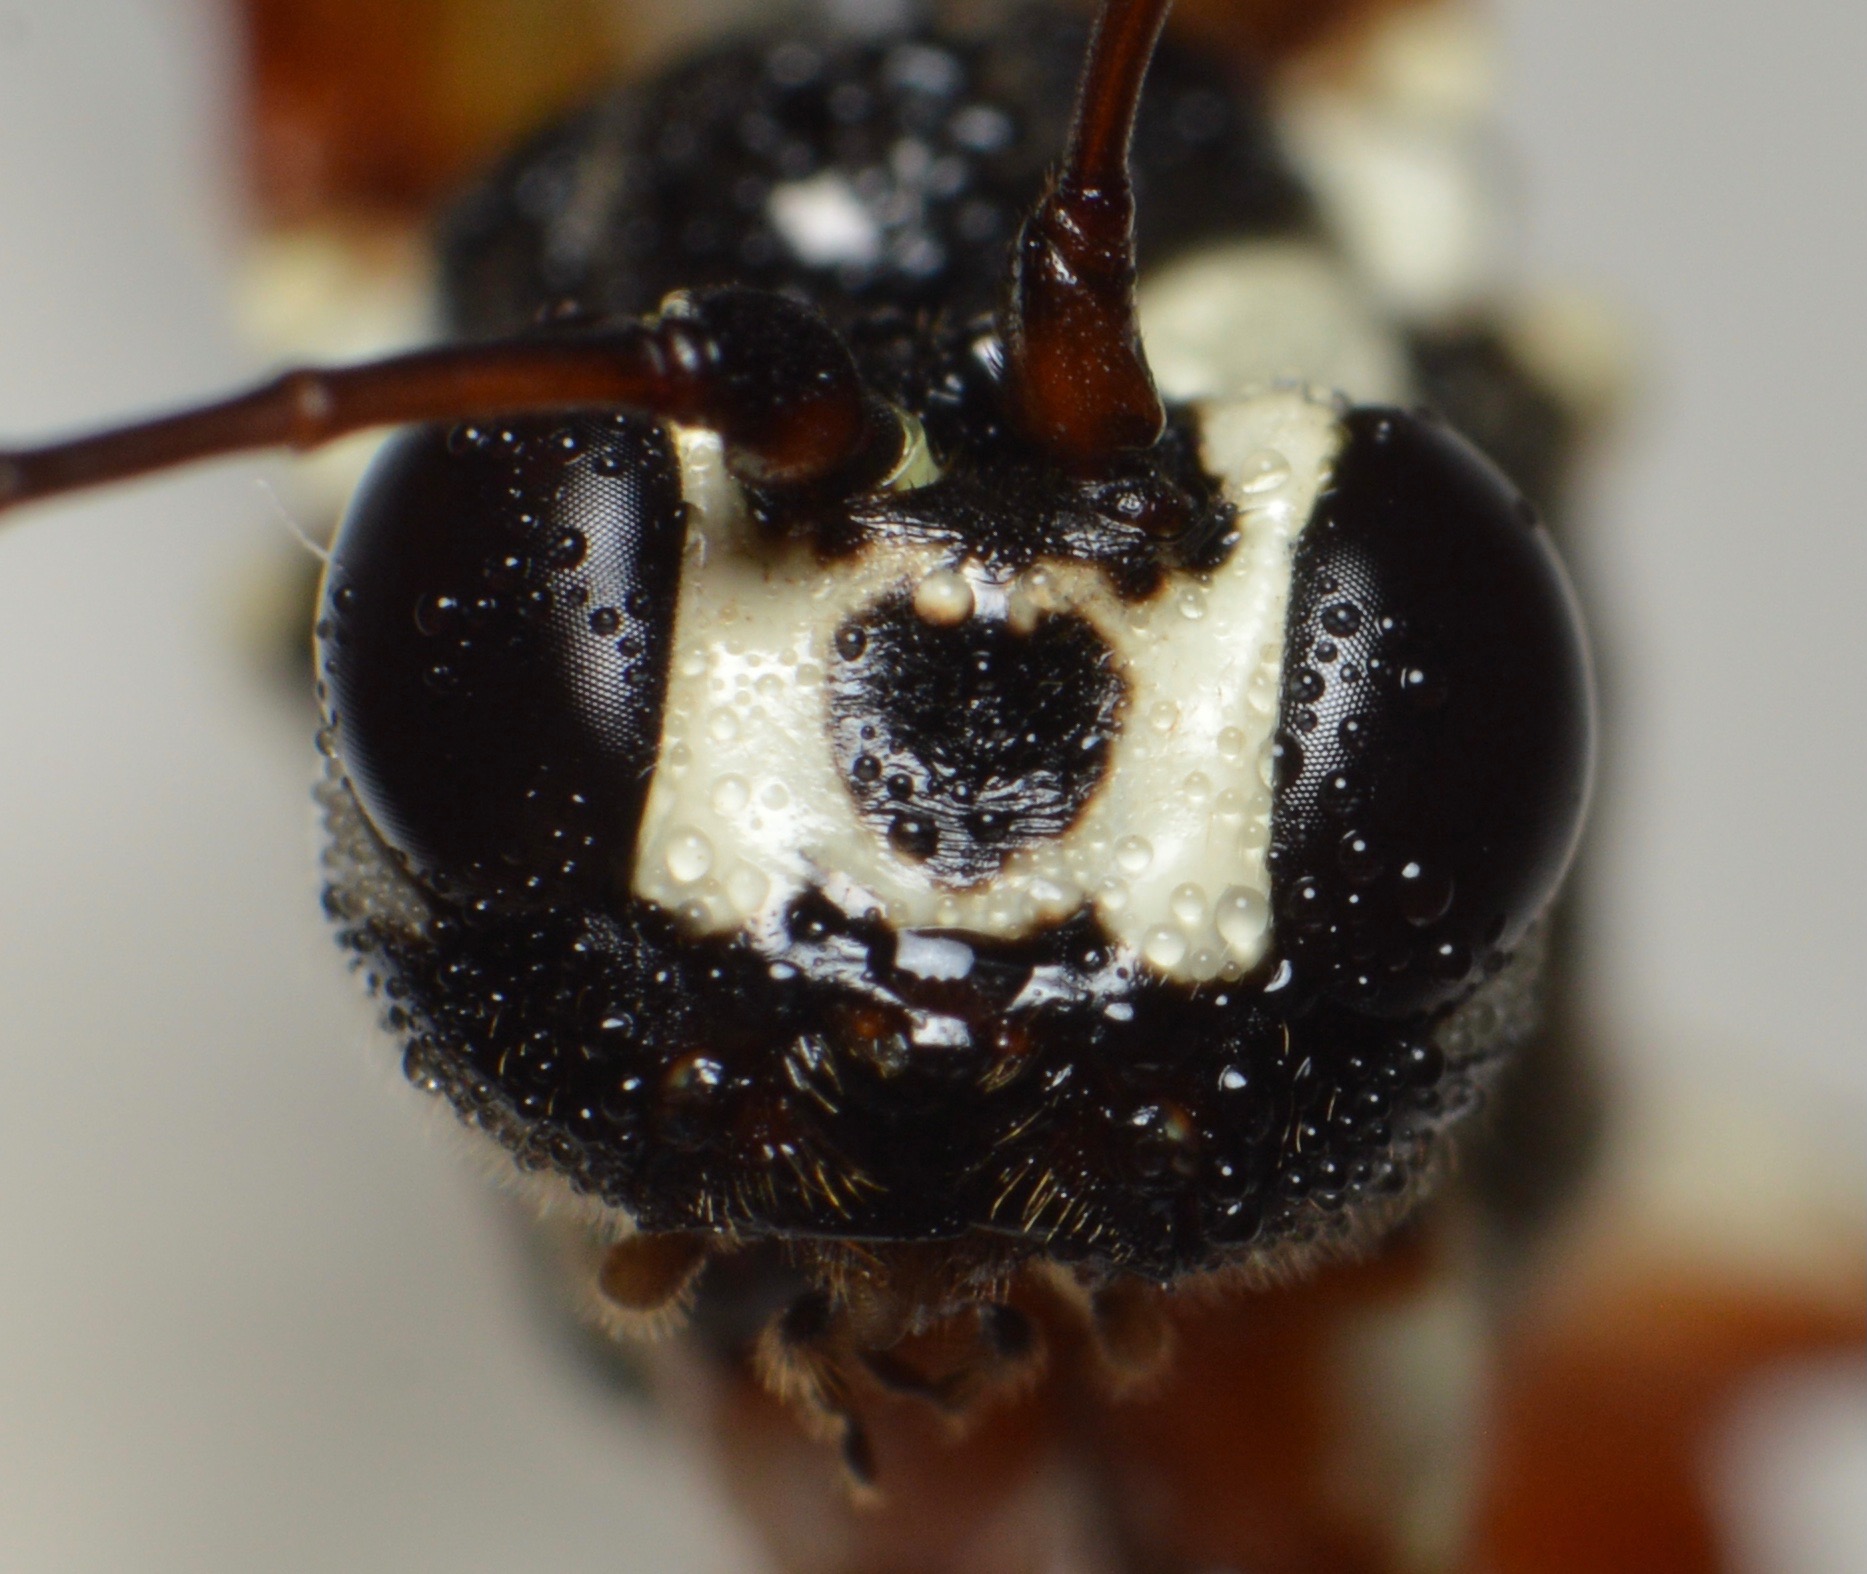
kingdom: Animalia
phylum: Arthropoda
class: Insecta
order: Hymenoptera
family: Ichneumonidae
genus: Rhyssa
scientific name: Rhyssa persuasoria
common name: Sabelhveps
